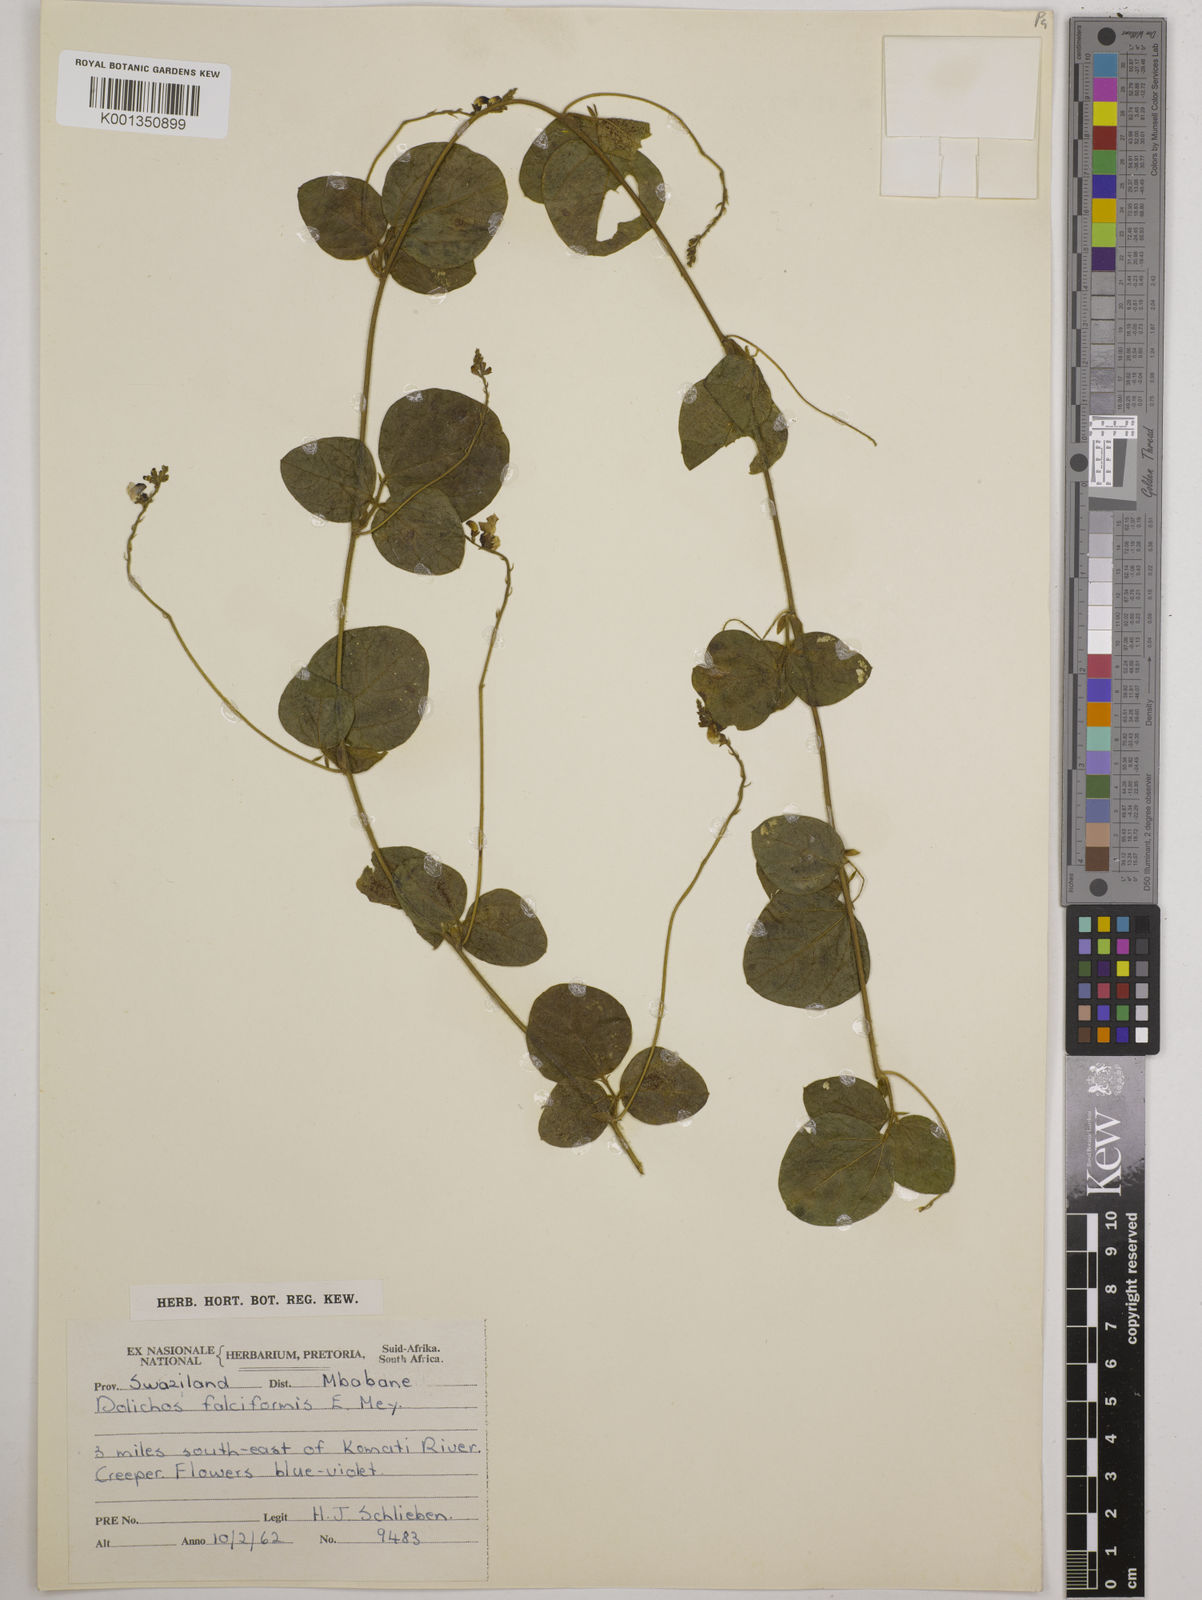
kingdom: Plantae
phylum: Tracheophyta
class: Magnoliopsida
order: Fabales
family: Fabaceae
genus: Dolichos
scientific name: Dolichos falciformis
